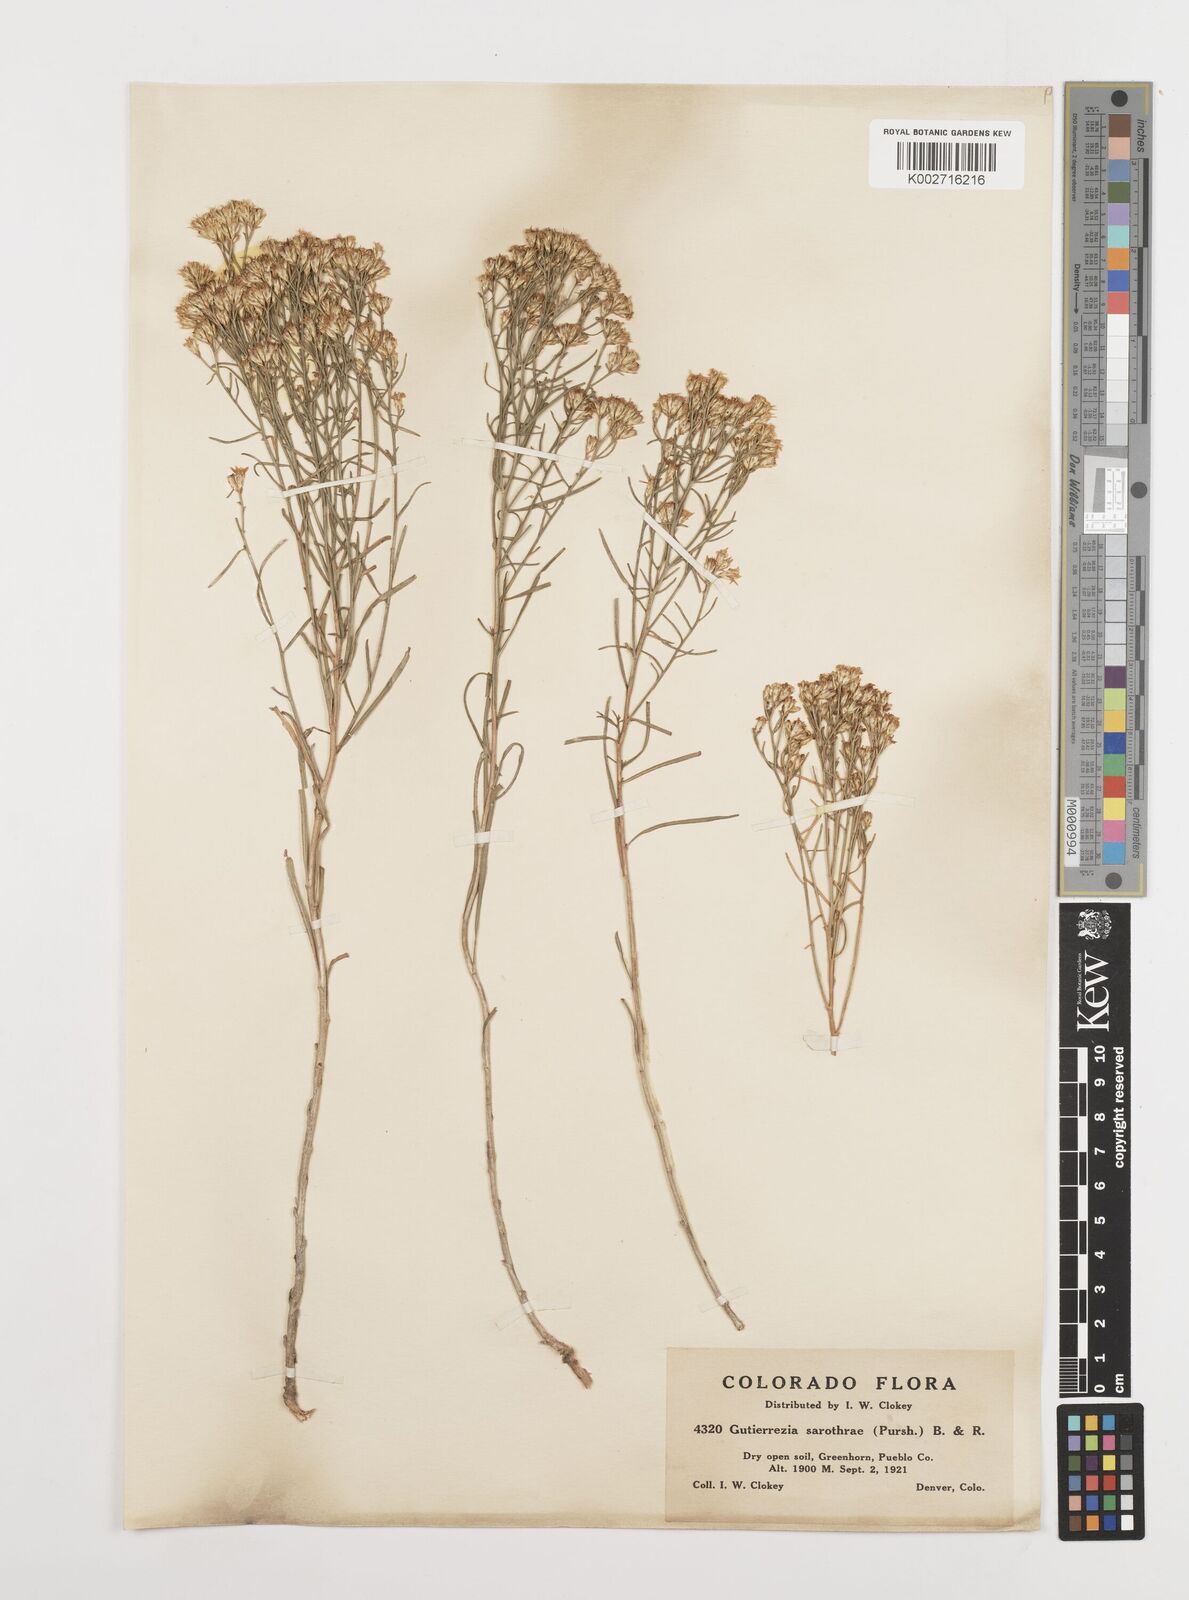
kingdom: Plantae
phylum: Tracheophyta
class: Magnoliopsida
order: Asterales
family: Asteraceae
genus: Gutierrezia
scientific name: Gutierrezia sarothrae
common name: Broom snakeweed
